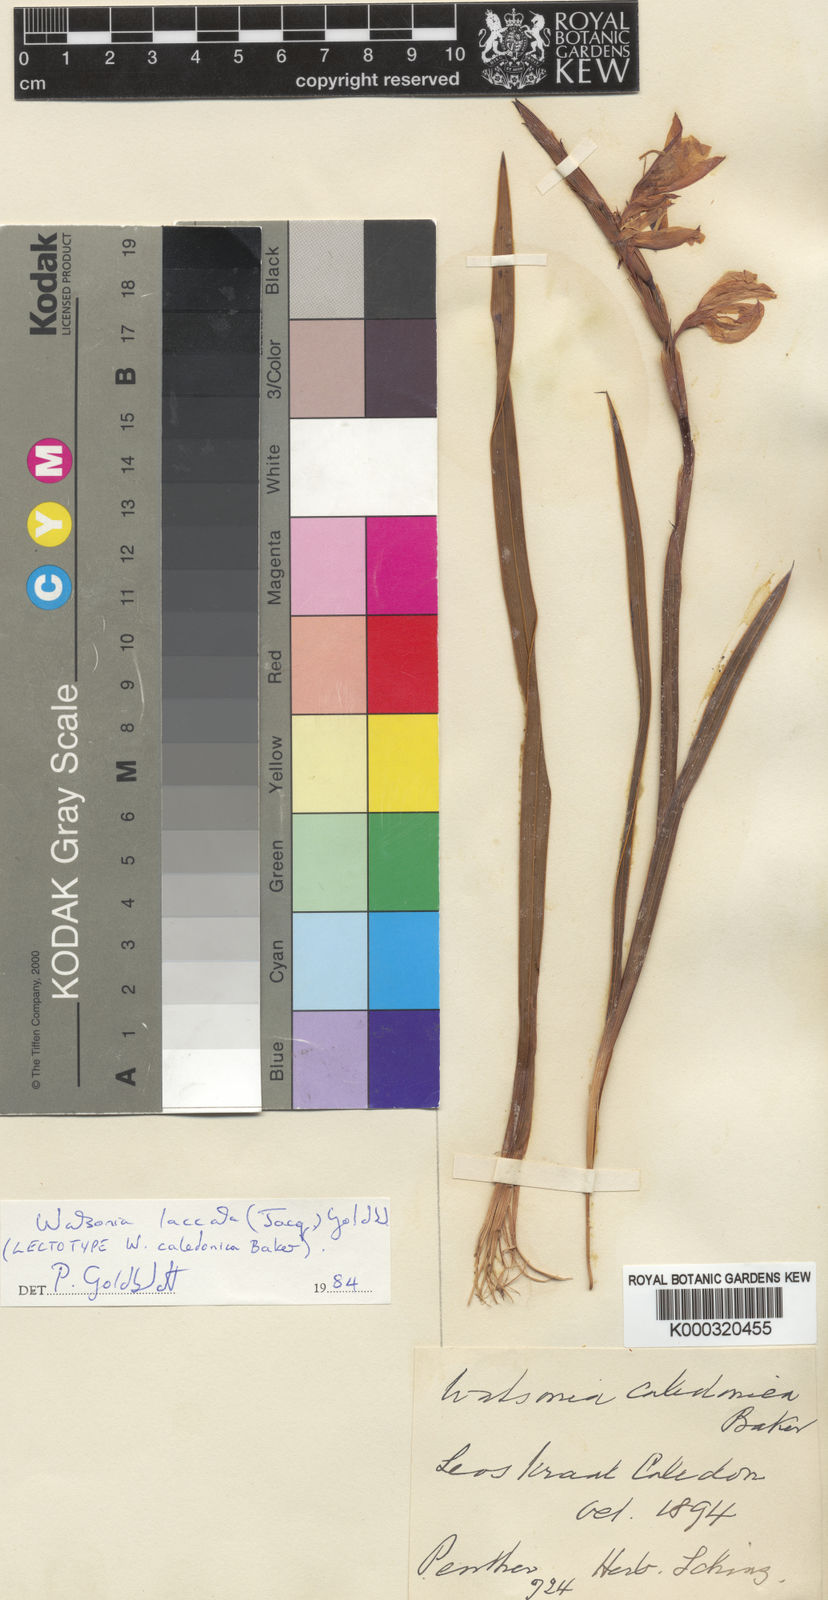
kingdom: Plantae
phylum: Tracheophyta
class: Liliopsida
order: Asparagales
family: Iridaceae
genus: Watsonia
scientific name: Watsonia laccata
